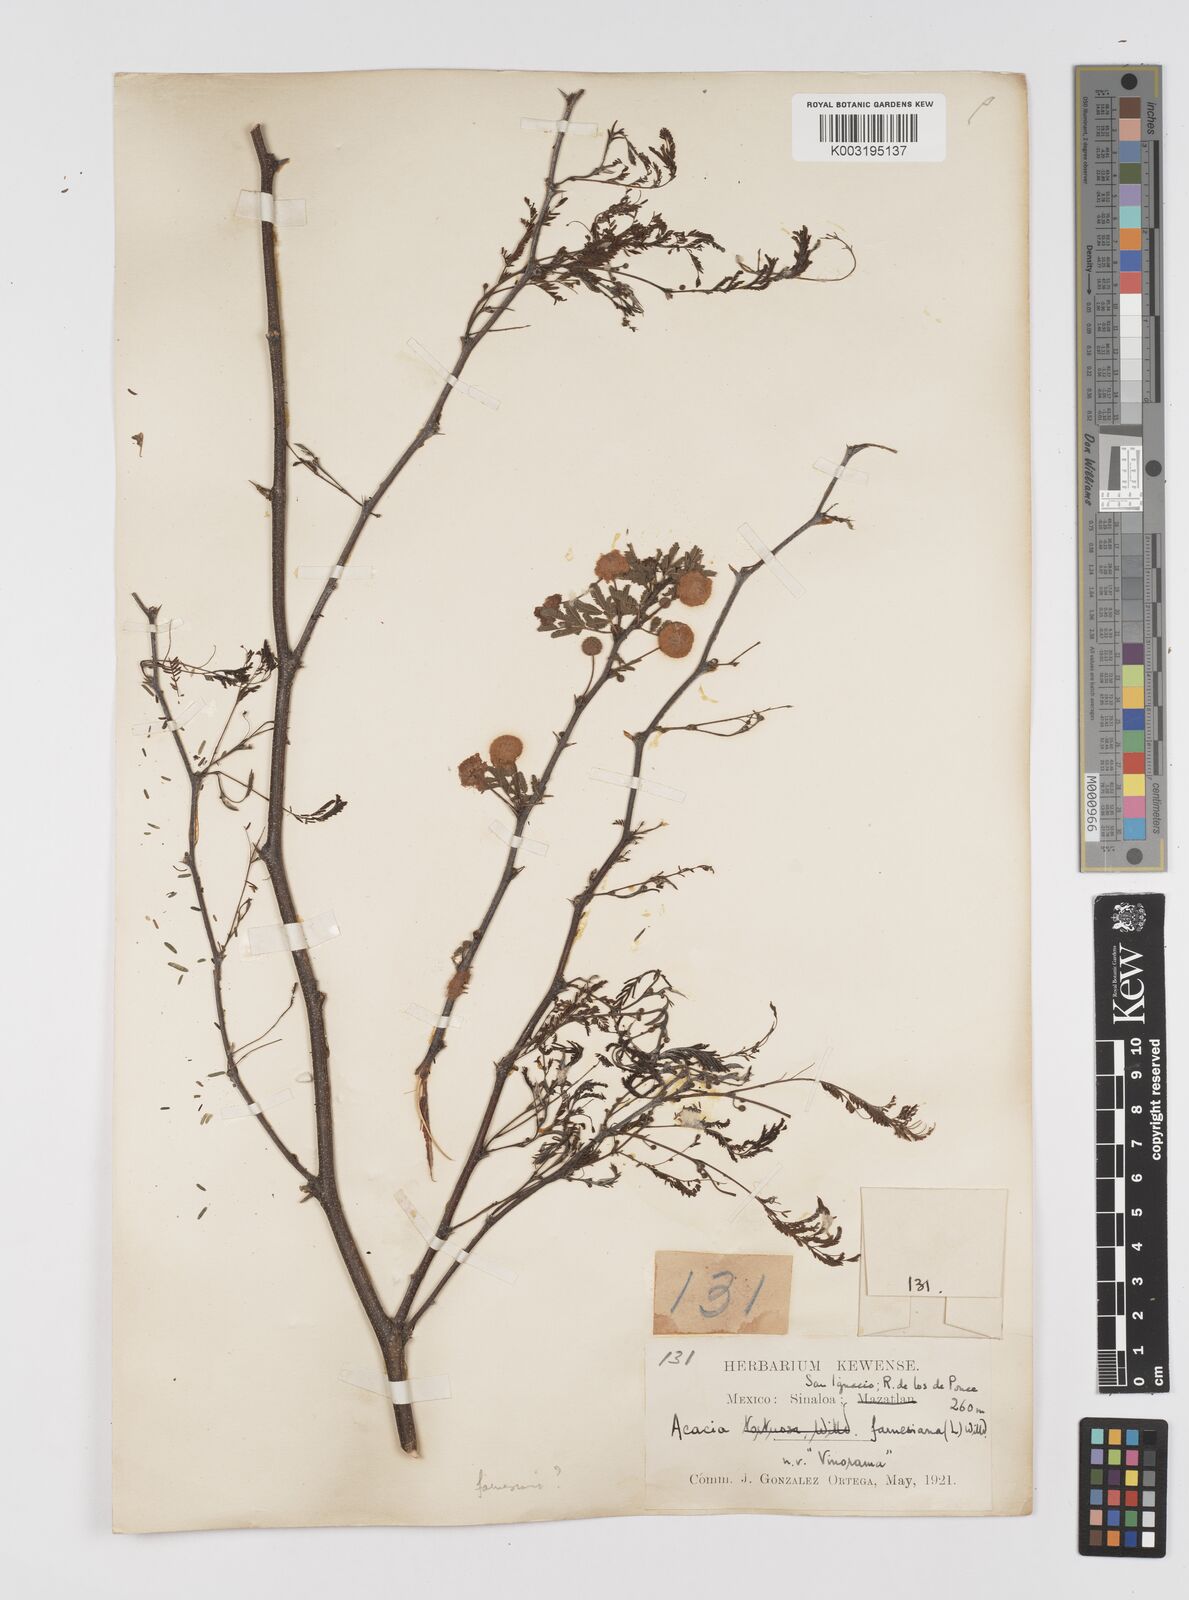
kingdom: Plantae
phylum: Tracheophyta
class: Magnoliopsida
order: Fabales
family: Fabaceae
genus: Vachellia
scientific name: Vachellia farnesiana
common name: Sweet acacia
